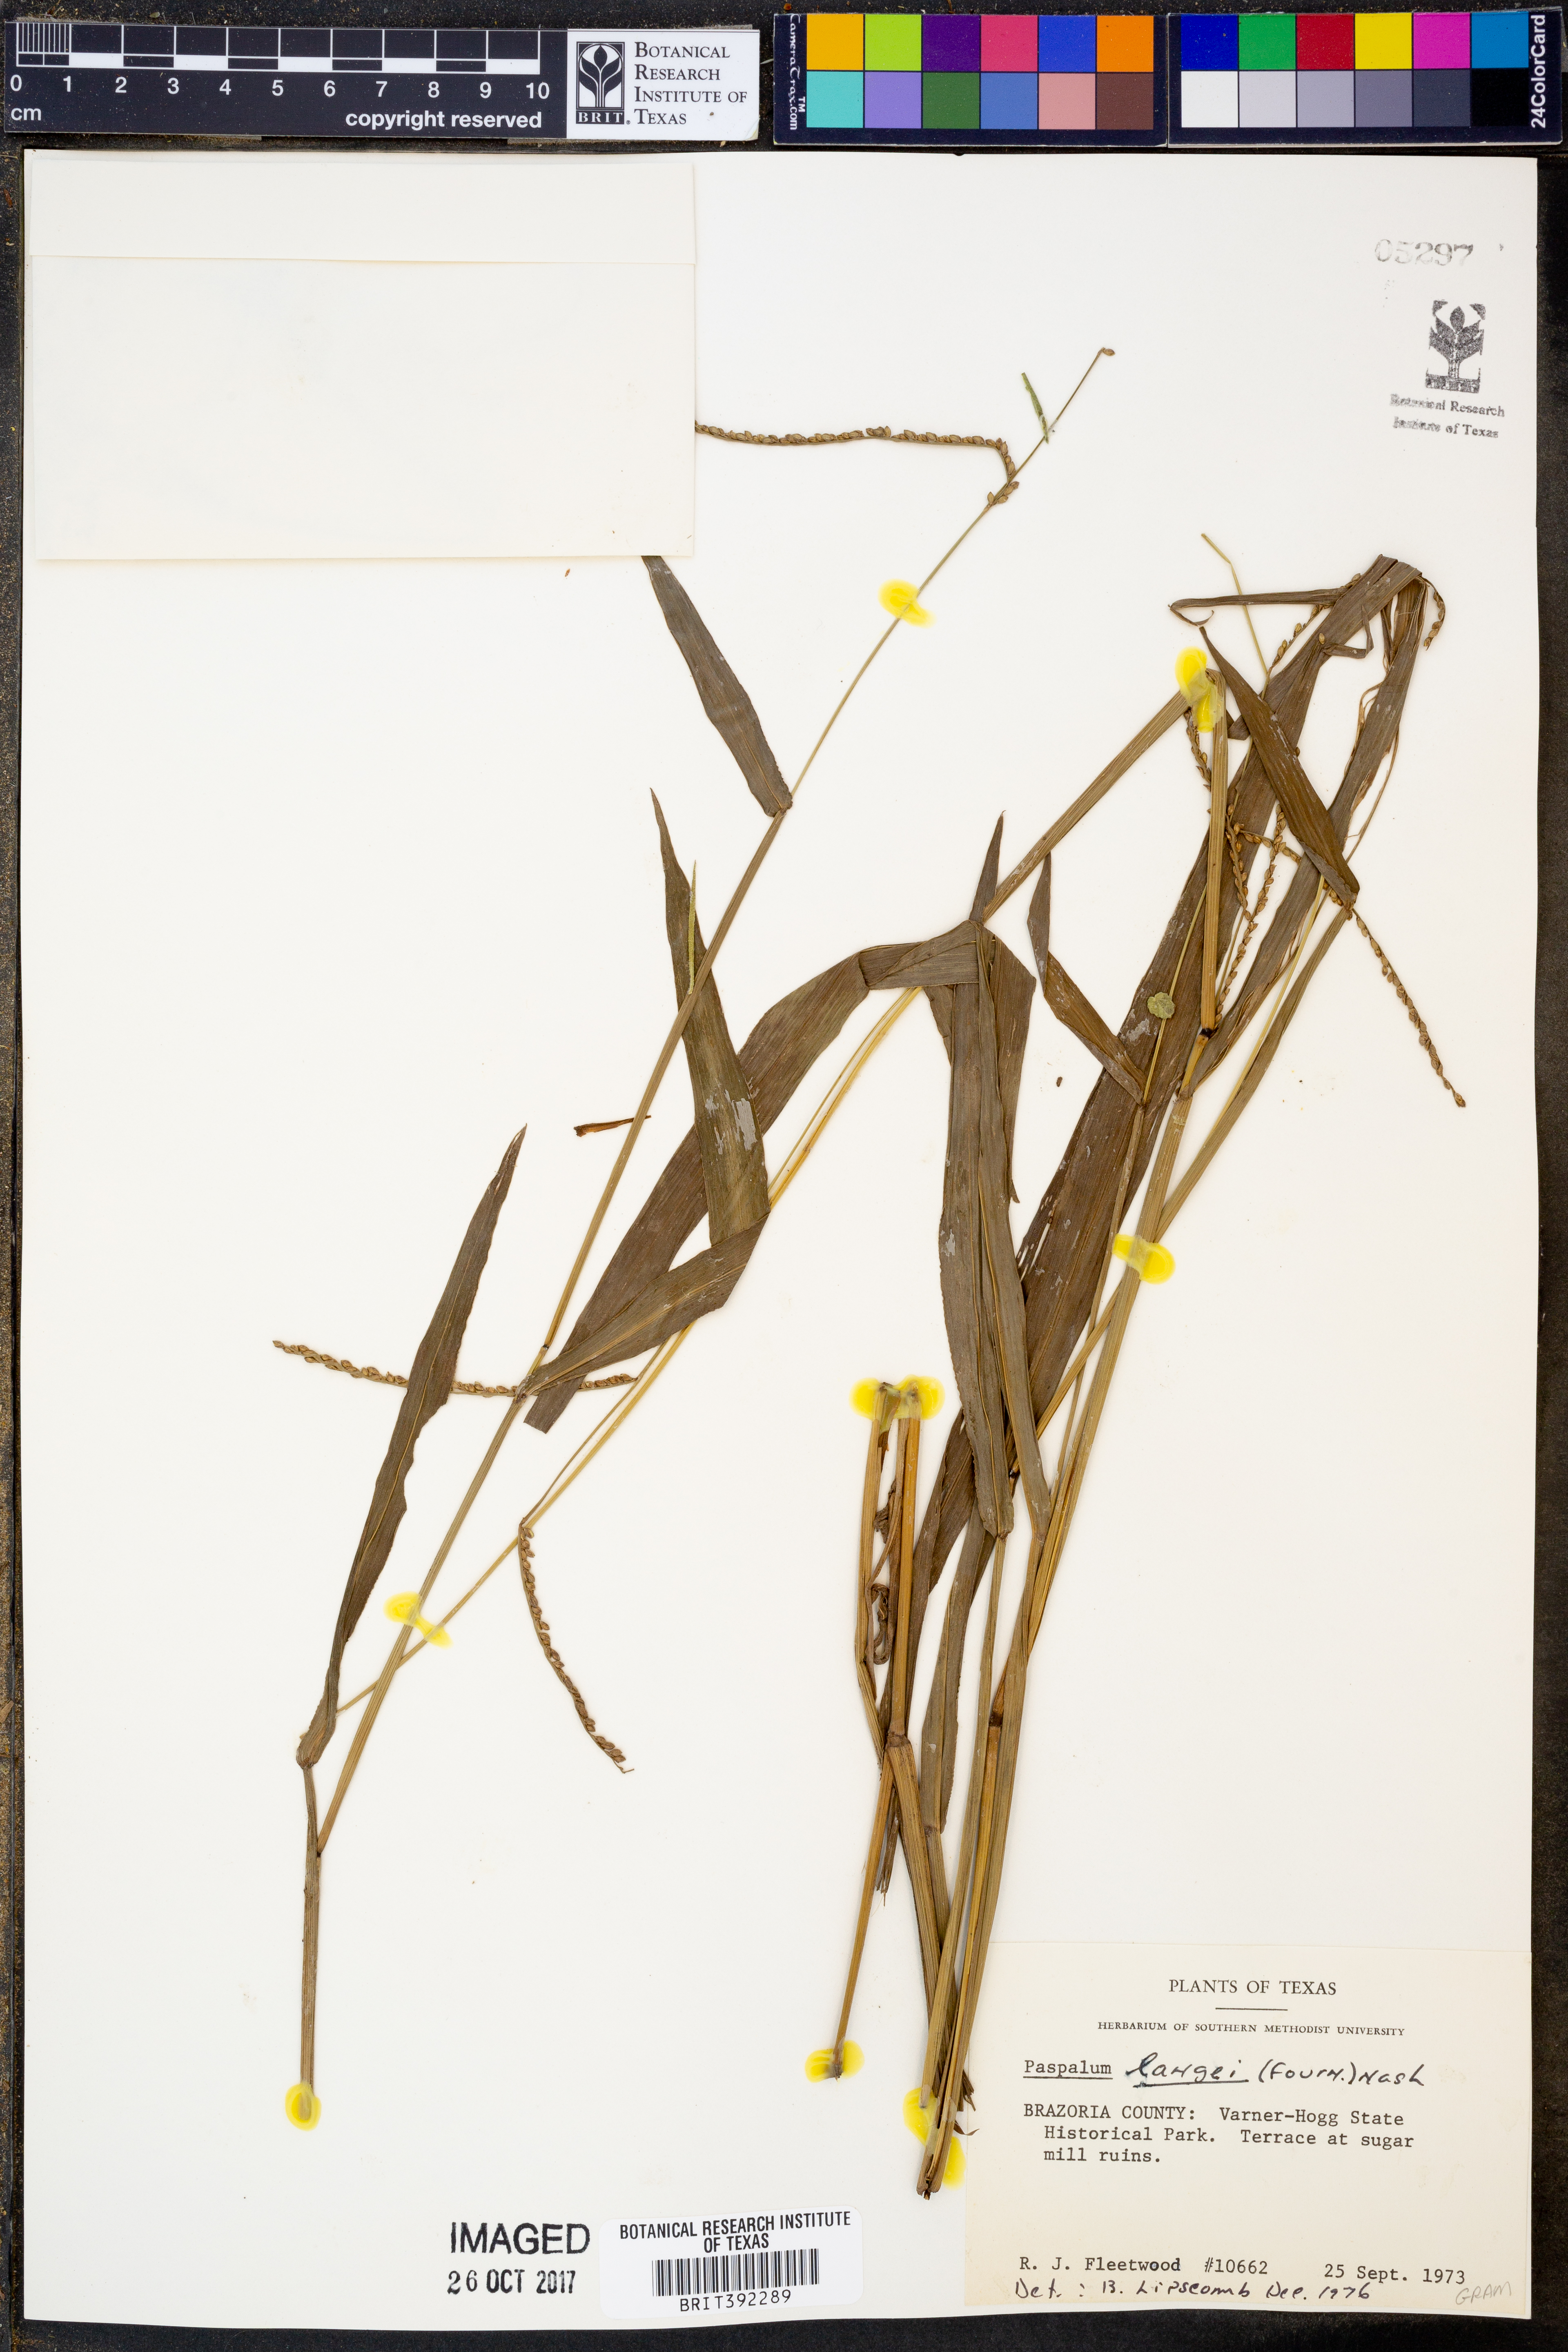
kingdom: Plantae
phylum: Tracheophyta
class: Liliopsida
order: Poales
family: Poaceae
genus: Paspalum
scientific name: Paspalum langei
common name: Rusty-seed paspalum
